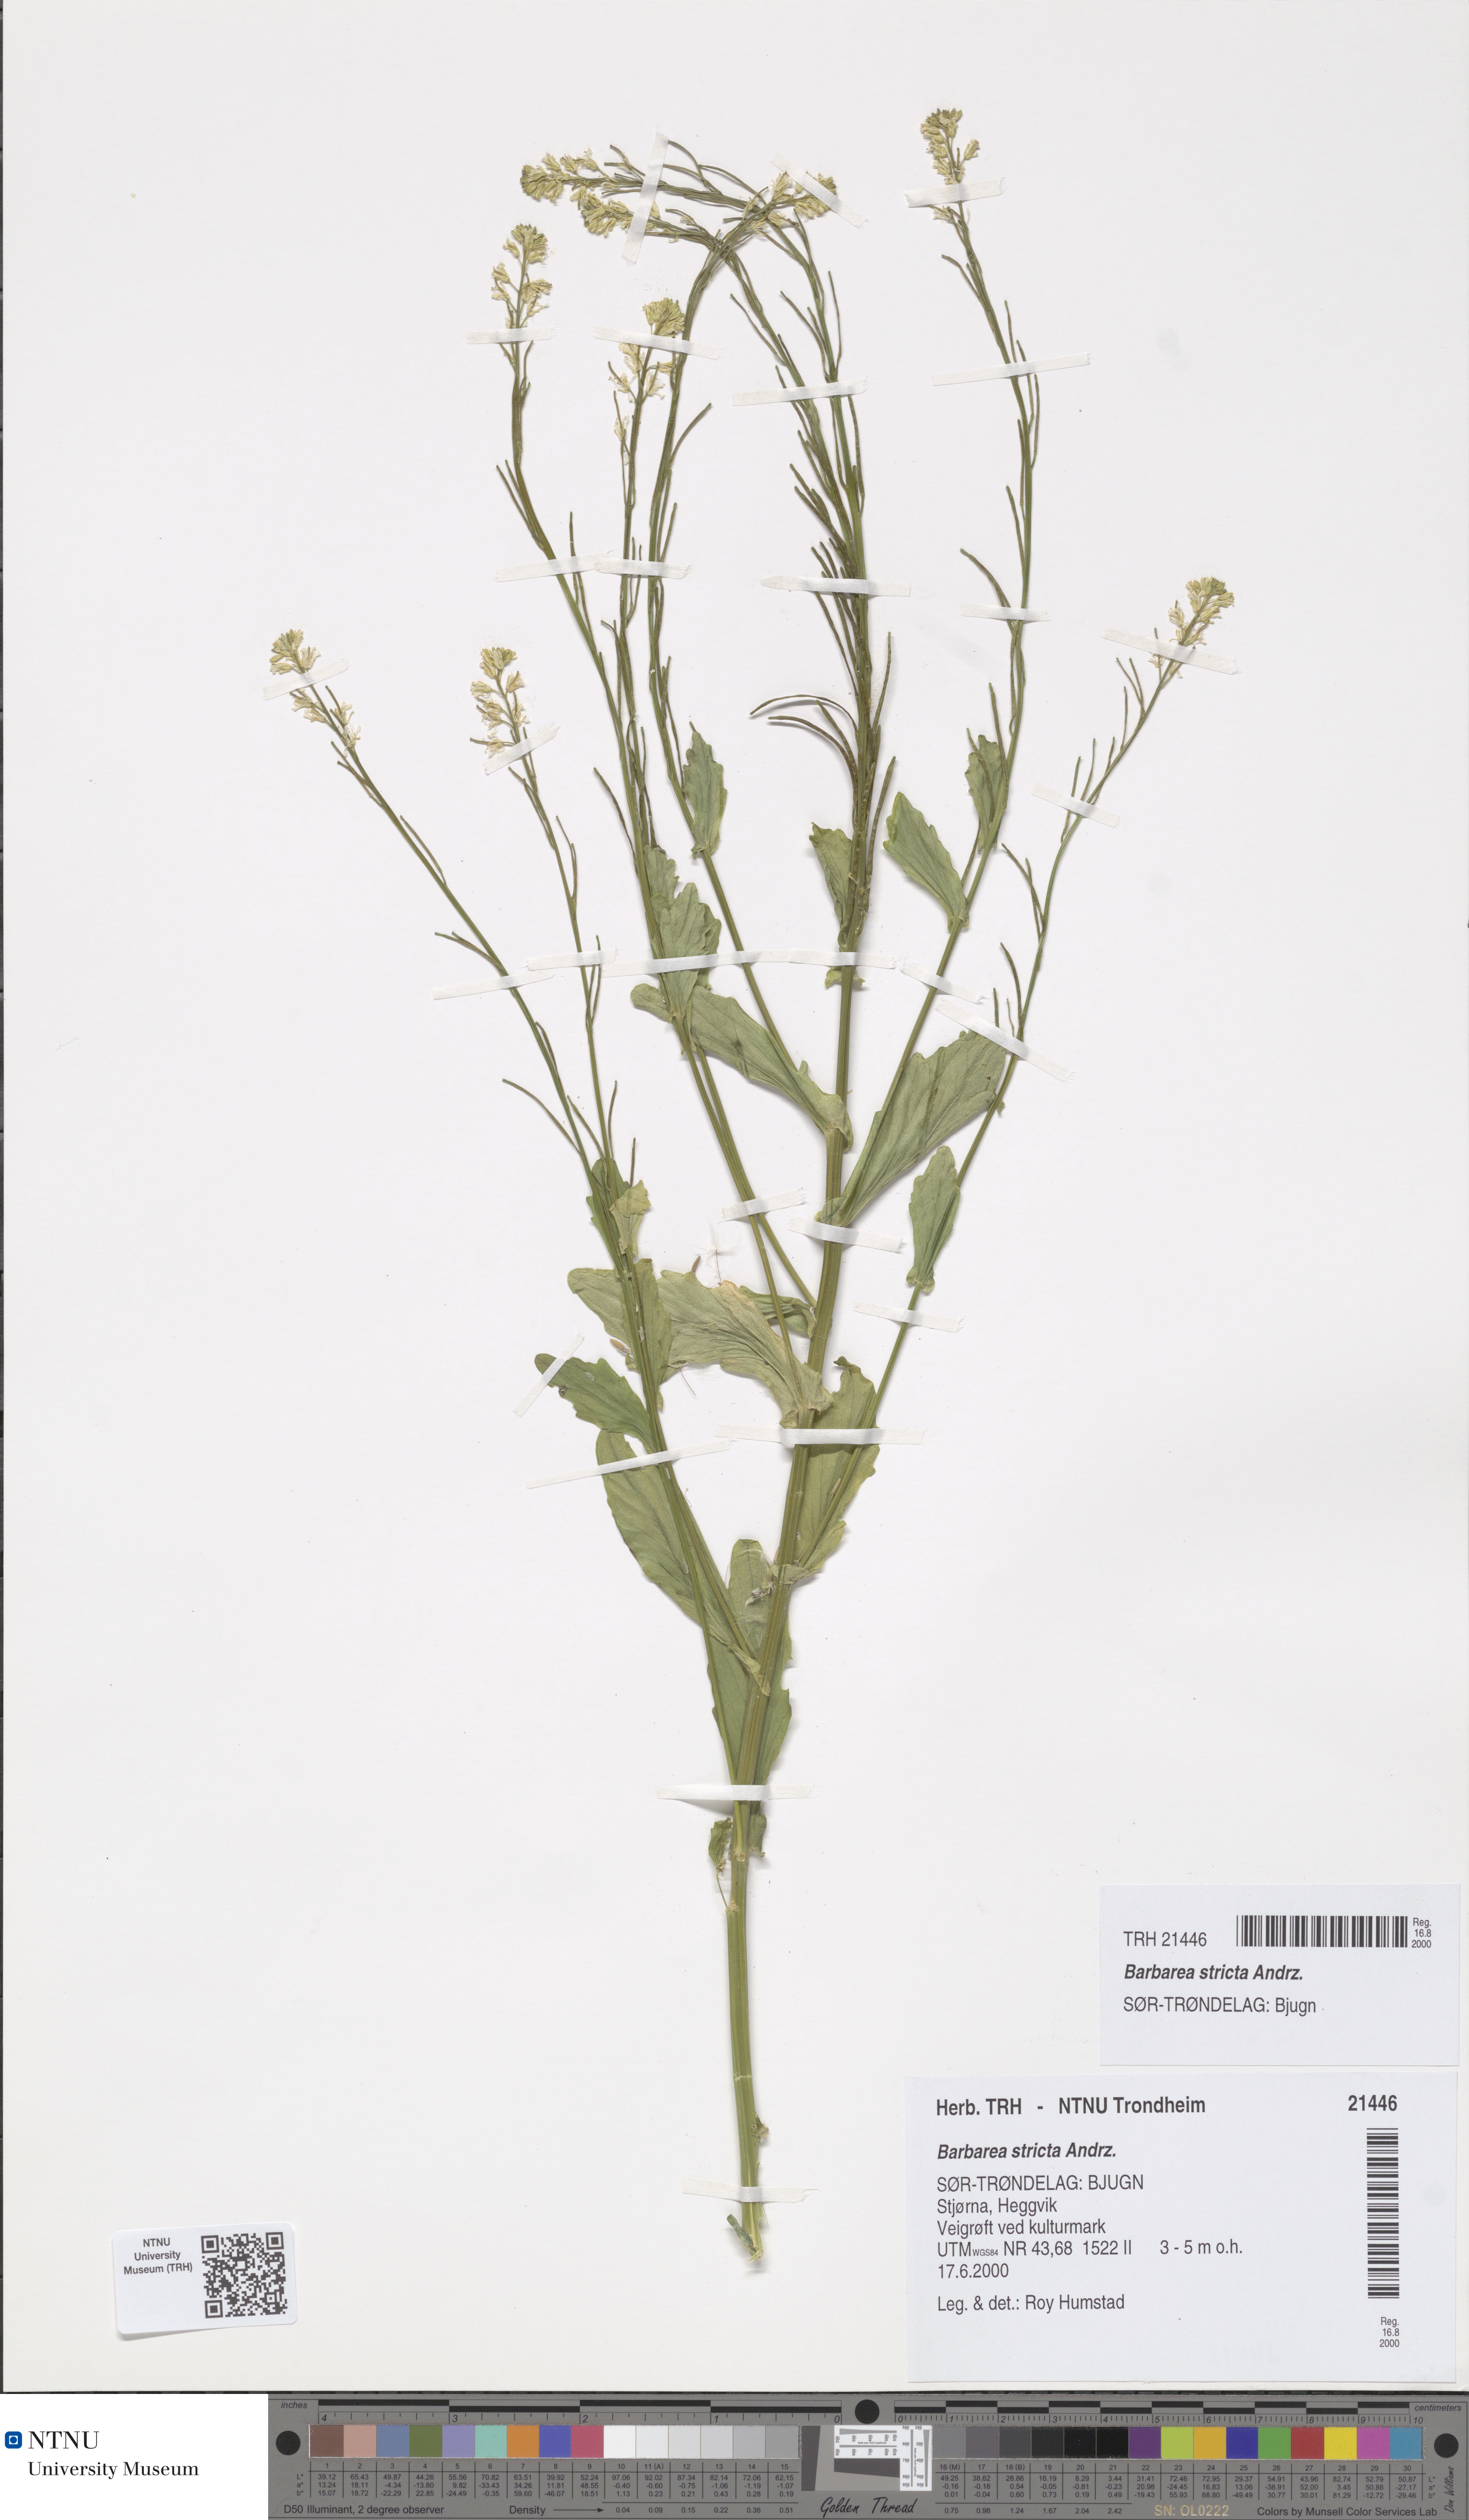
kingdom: Plantae
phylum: Tracheophyta
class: Magnoliopsida
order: Brassicales
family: Brassicaceae
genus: Barbarea
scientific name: Barbarea stricta
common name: Small-flowered winter-cress
